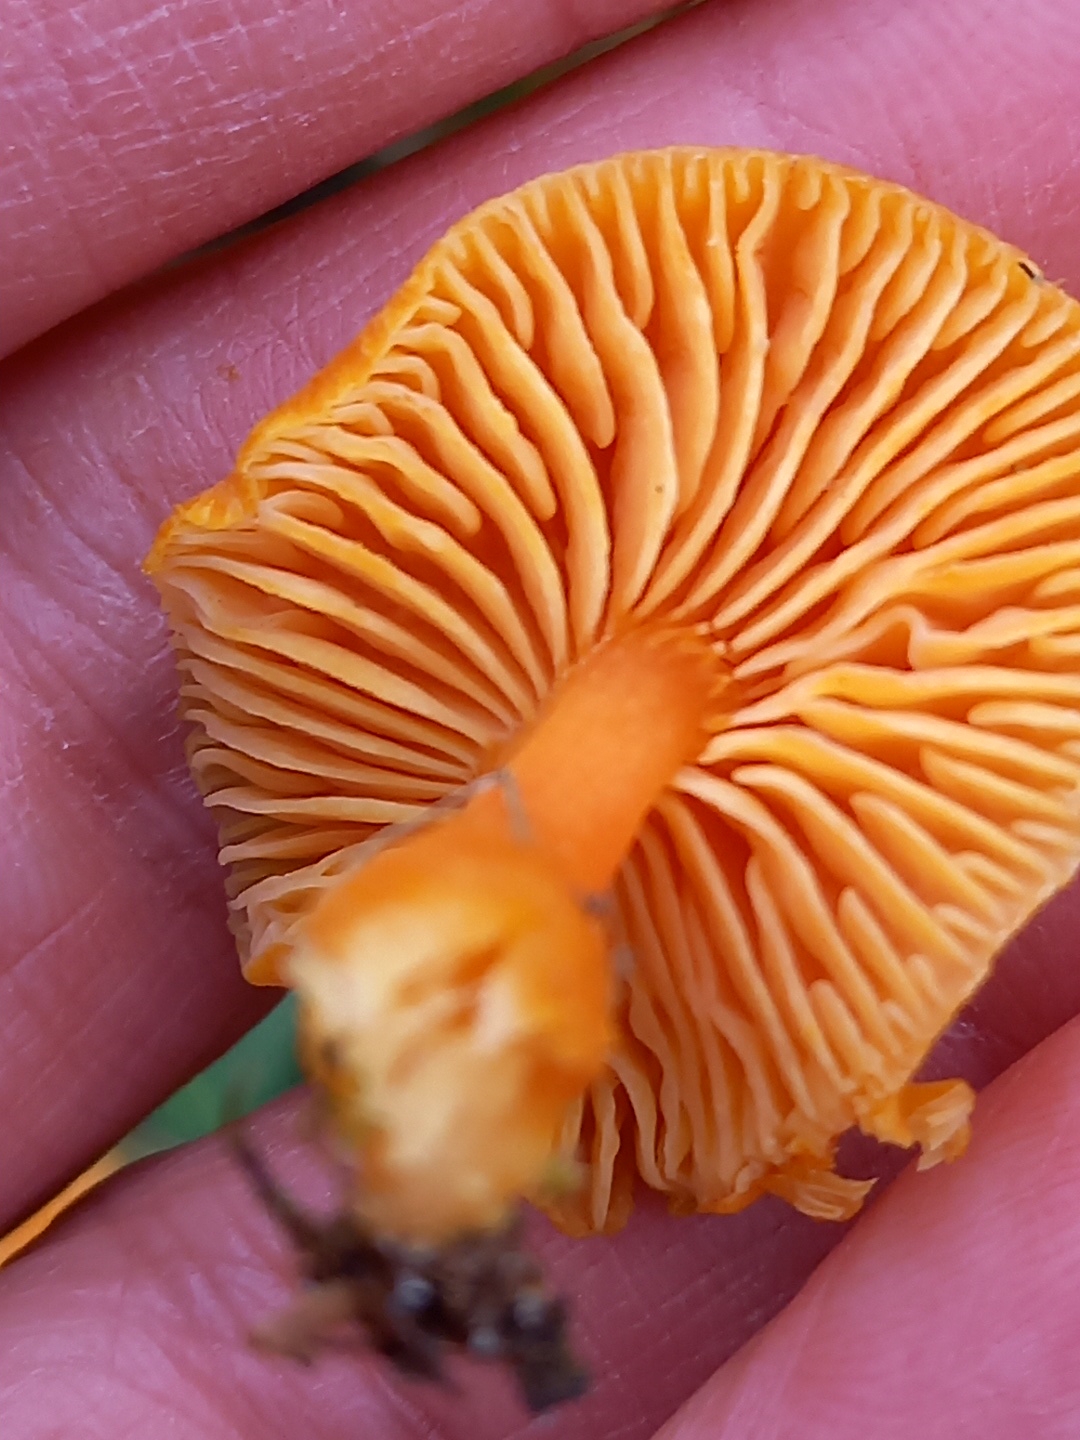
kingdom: Fungi
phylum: Basidiomycota
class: Agaricomycetes
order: Agaricales
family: Hygrophoraceae
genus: Hygrocybe
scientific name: Hygrocybe miniata
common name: mønje-vokshat
